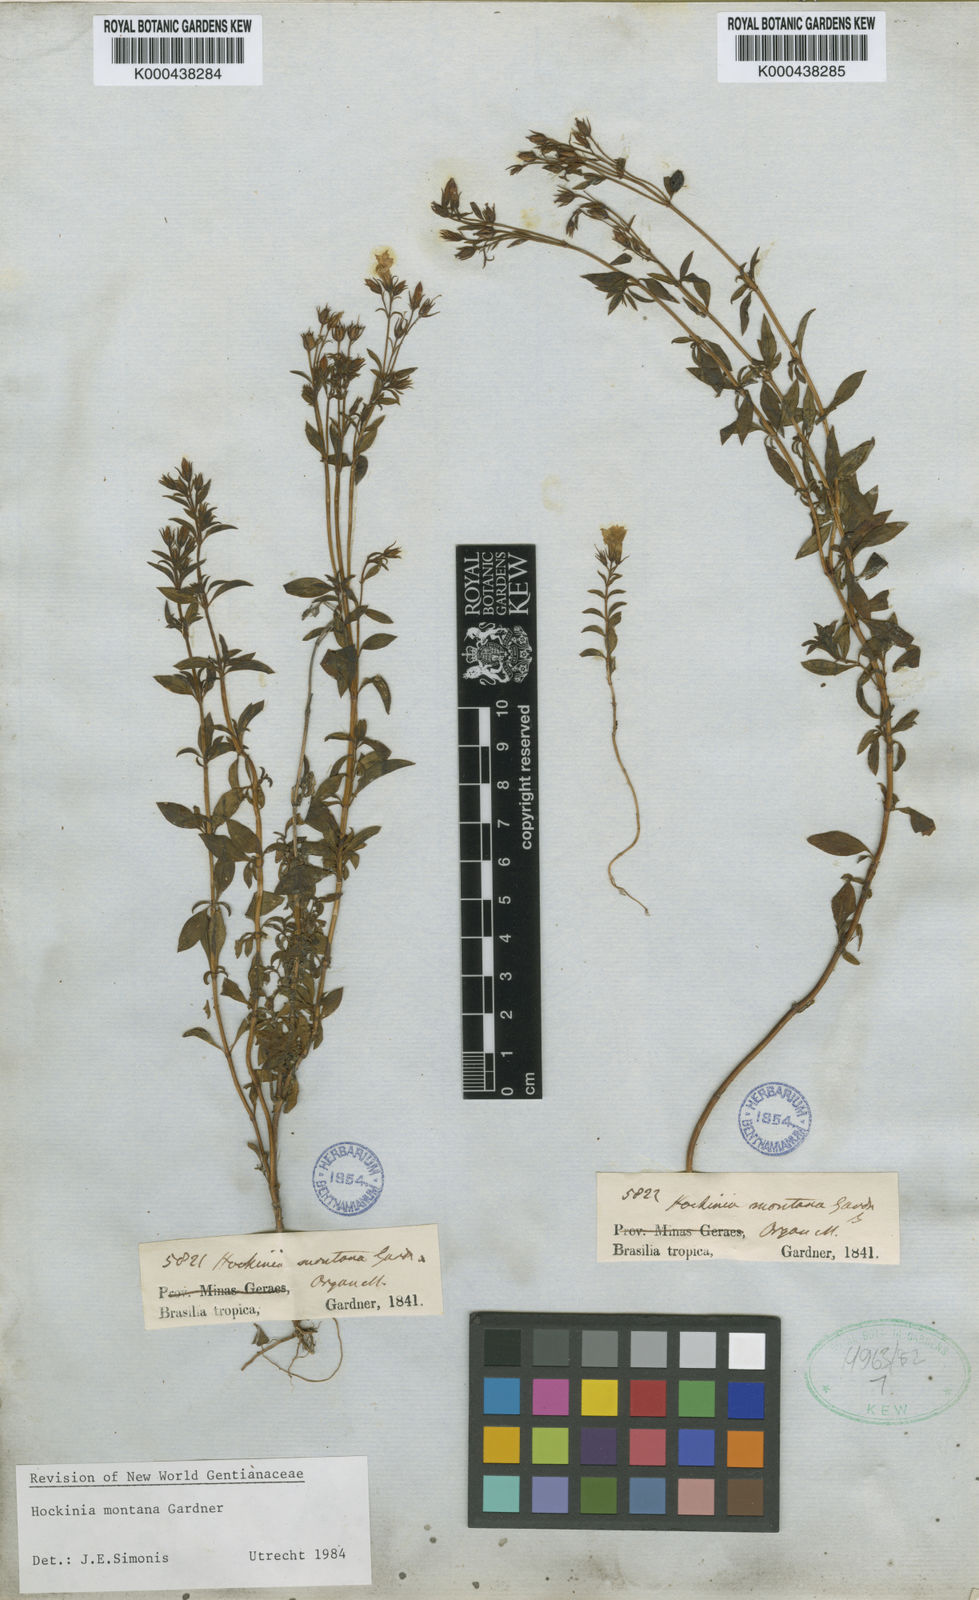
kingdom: Plantae
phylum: Tracheophyta
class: Magnoliopsida
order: Gentianales
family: Gentianaceae
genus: Hockinia
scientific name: Hockinia montana
